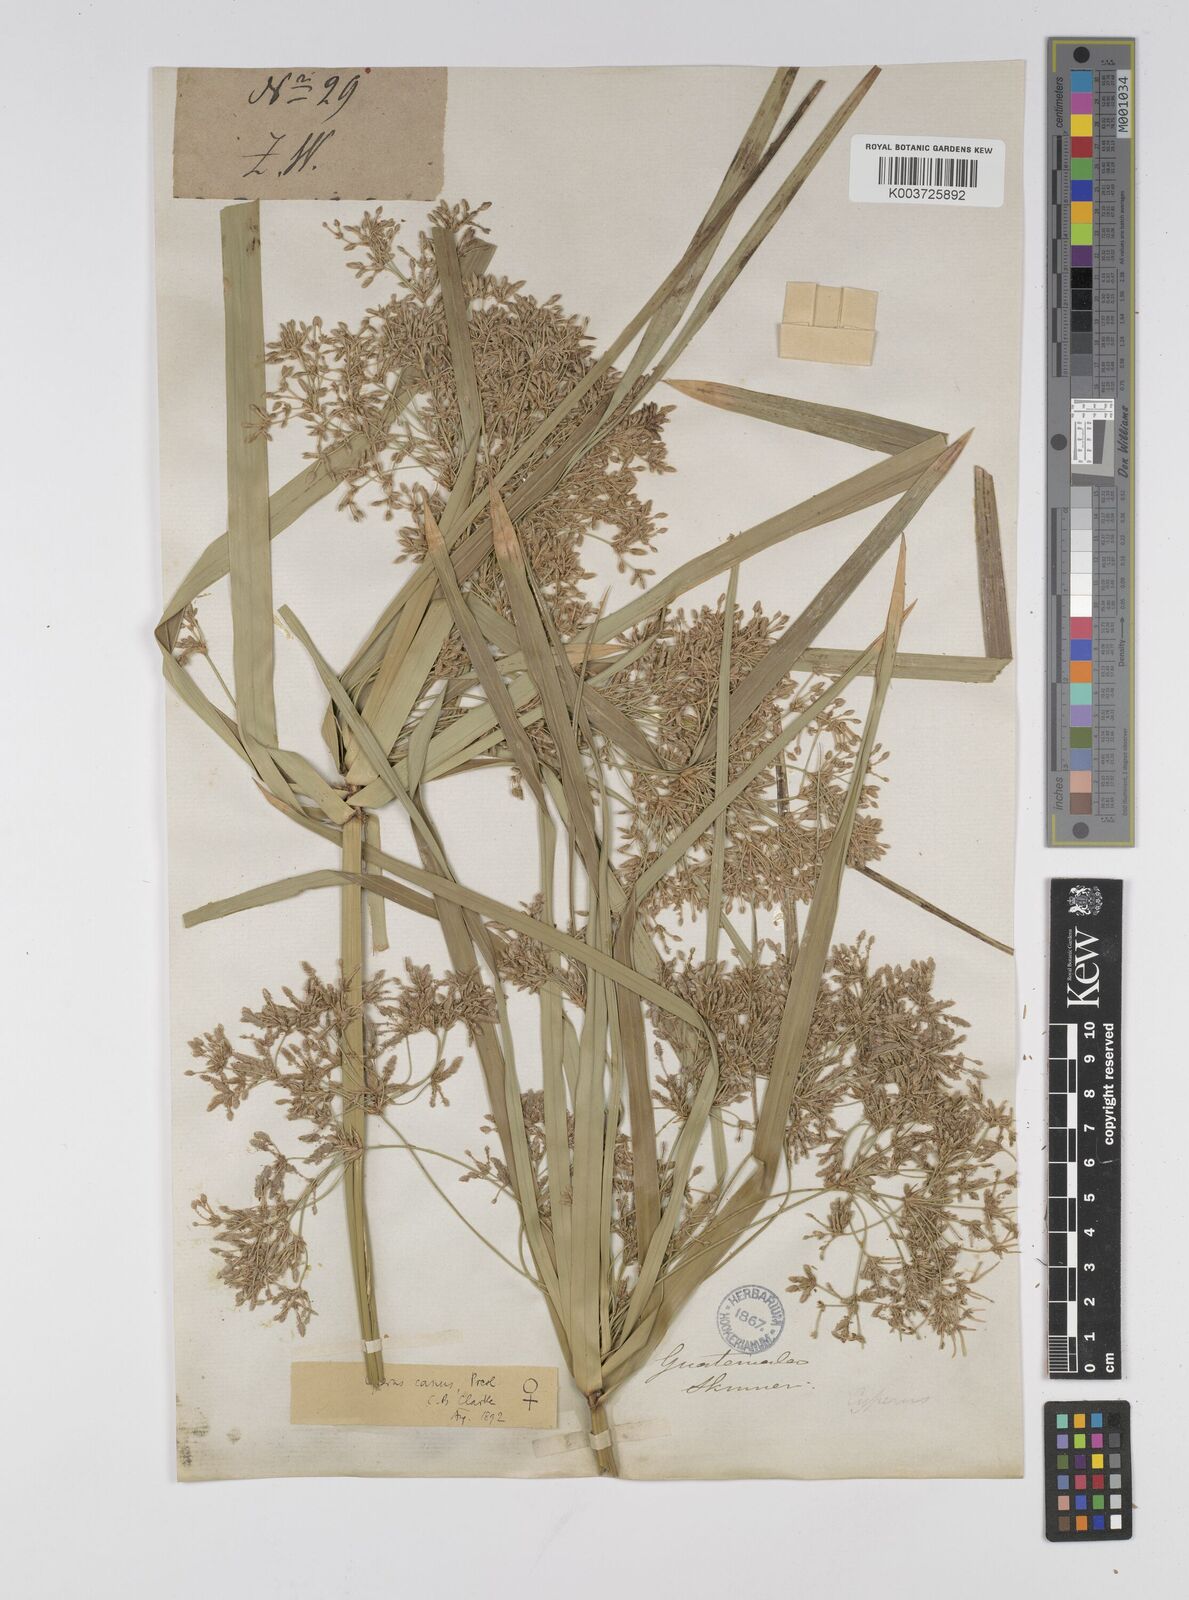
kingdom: Plantae
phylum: Tracheophyta
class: Liliopsida
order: Poales
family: Cyperaceae
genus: Cyperus
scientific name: Cyperus canus
